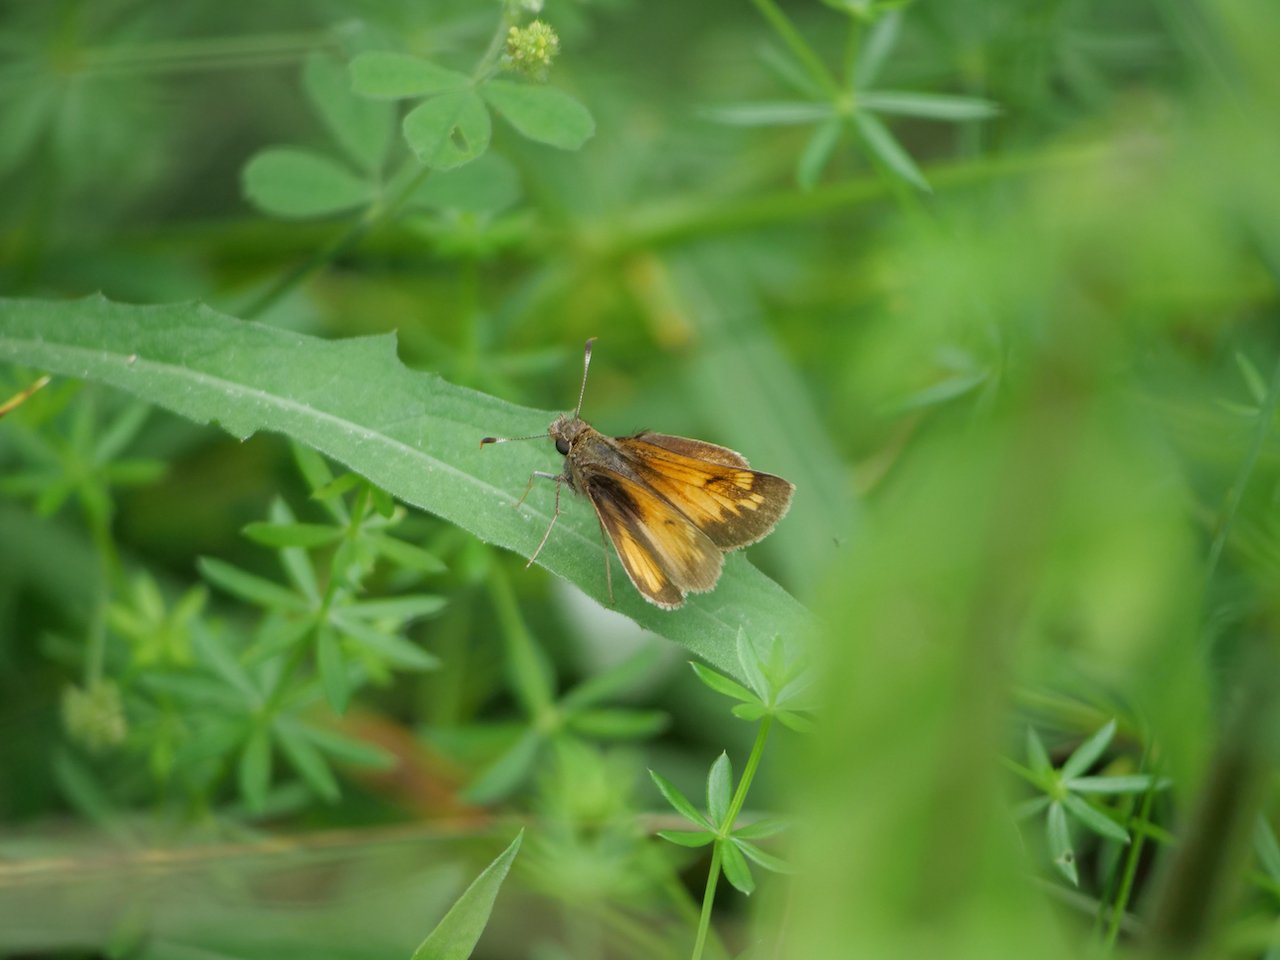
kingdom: Animalia
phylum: Arthropoda
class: Insecta
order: Lepidoptera
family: Hesperiidae
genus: Lon
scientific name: Lon hobomok
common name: Hobomok Skipper
